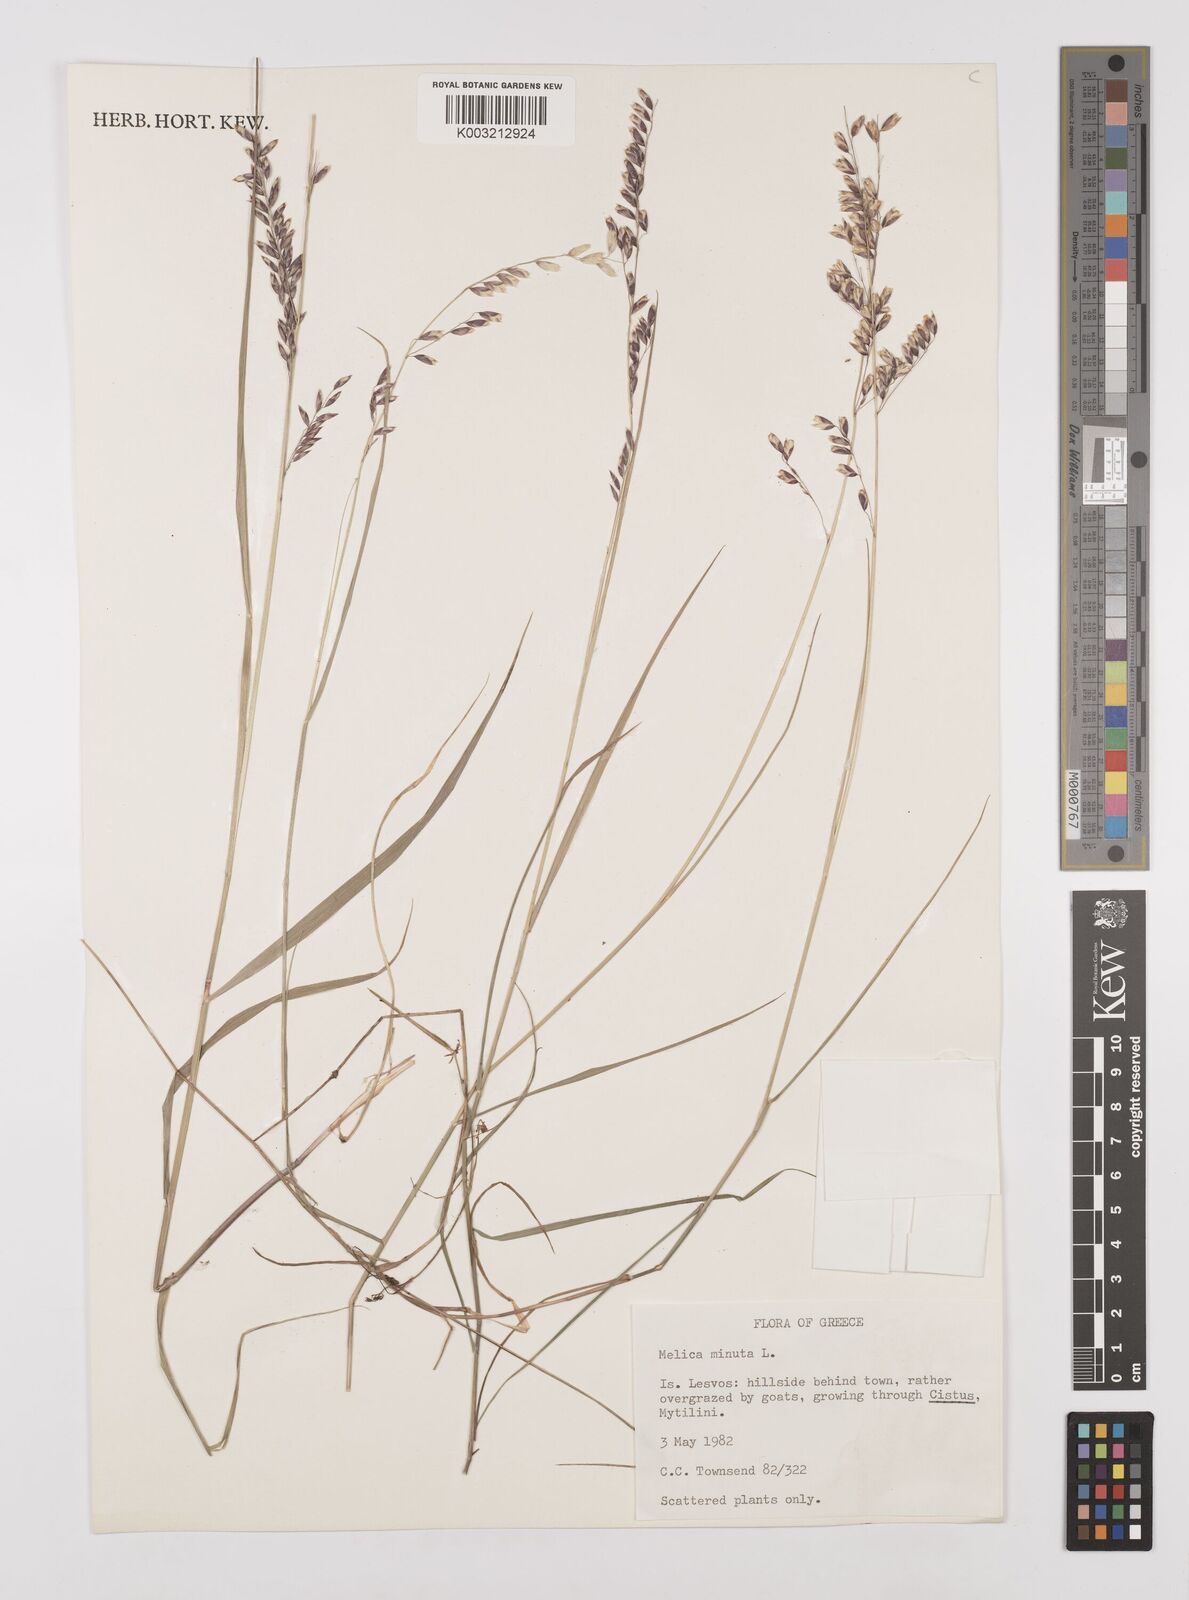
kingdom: Plantae
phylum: Tracheophyta
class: Liliopsida
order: Poales
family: Poaceae
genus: Melica
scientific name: Melica minuta
